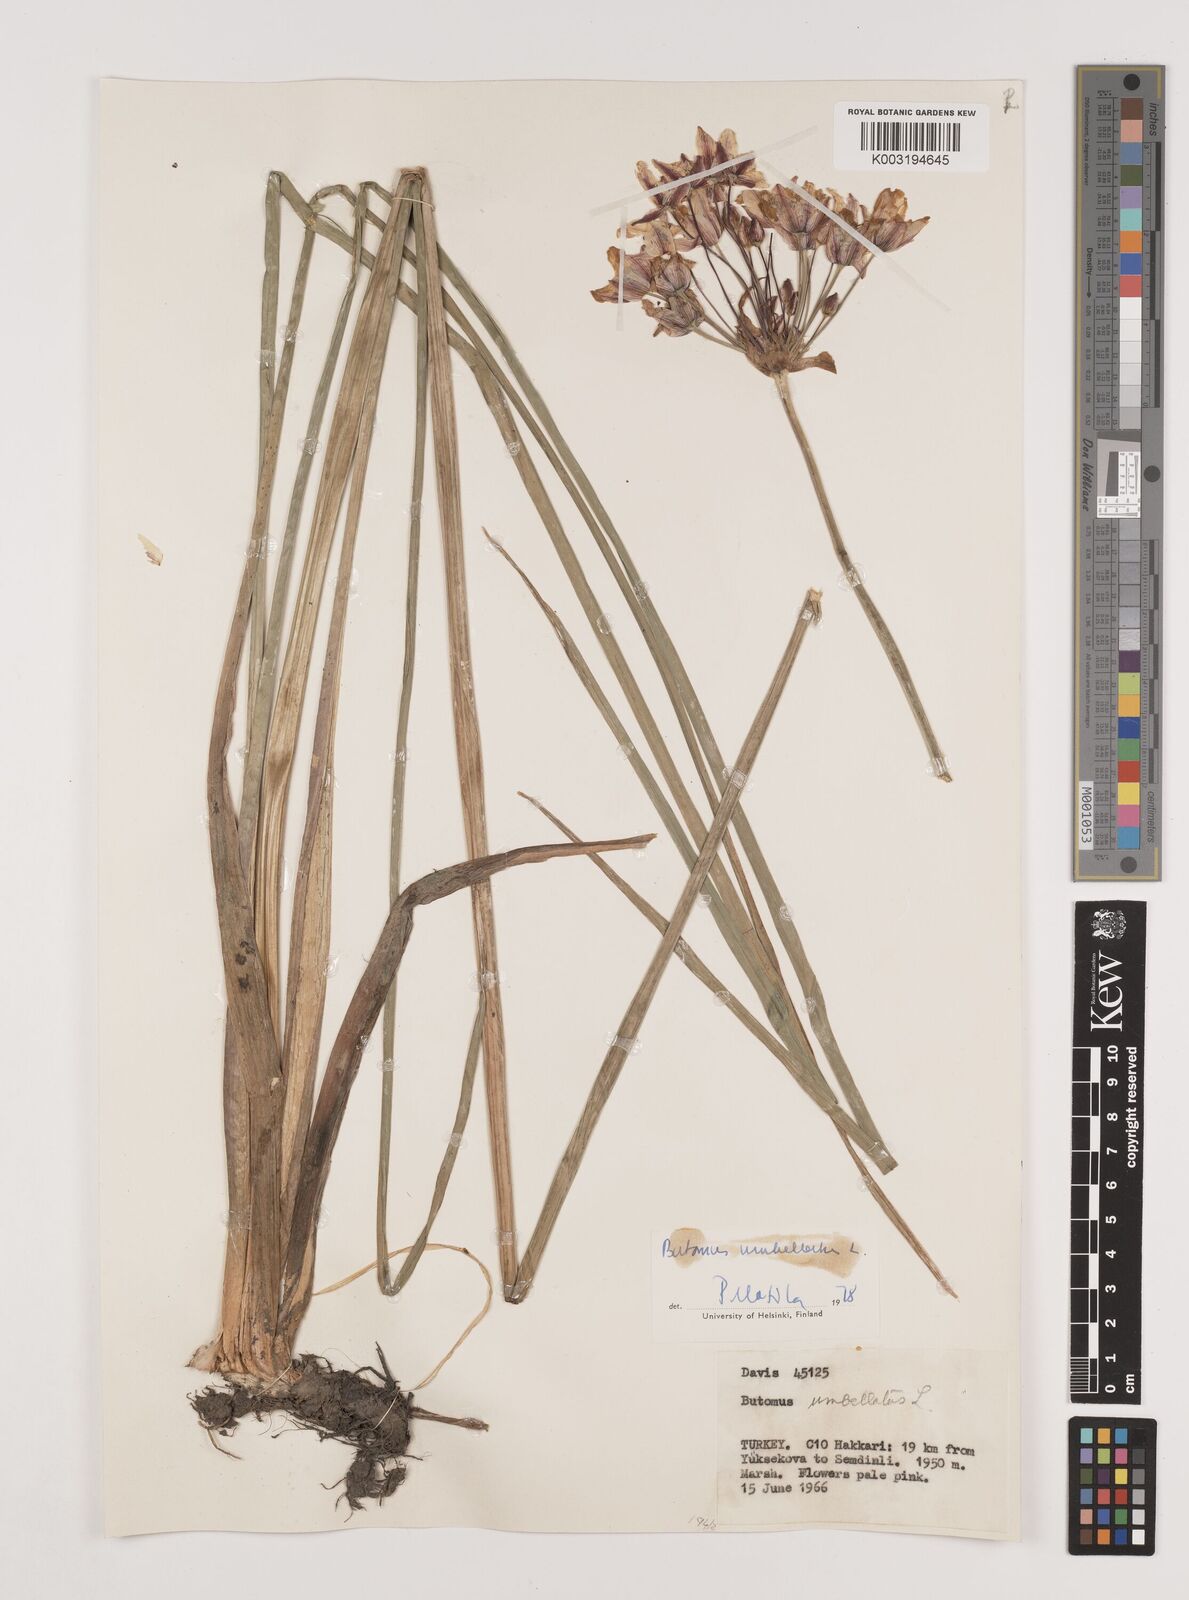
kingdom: Plantae
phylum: Tracheophyta
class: Liliopsida
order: Alismatales
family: Butomaceae
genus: Butomus
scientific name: Butomus umbellatus
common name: Flowering-rush
